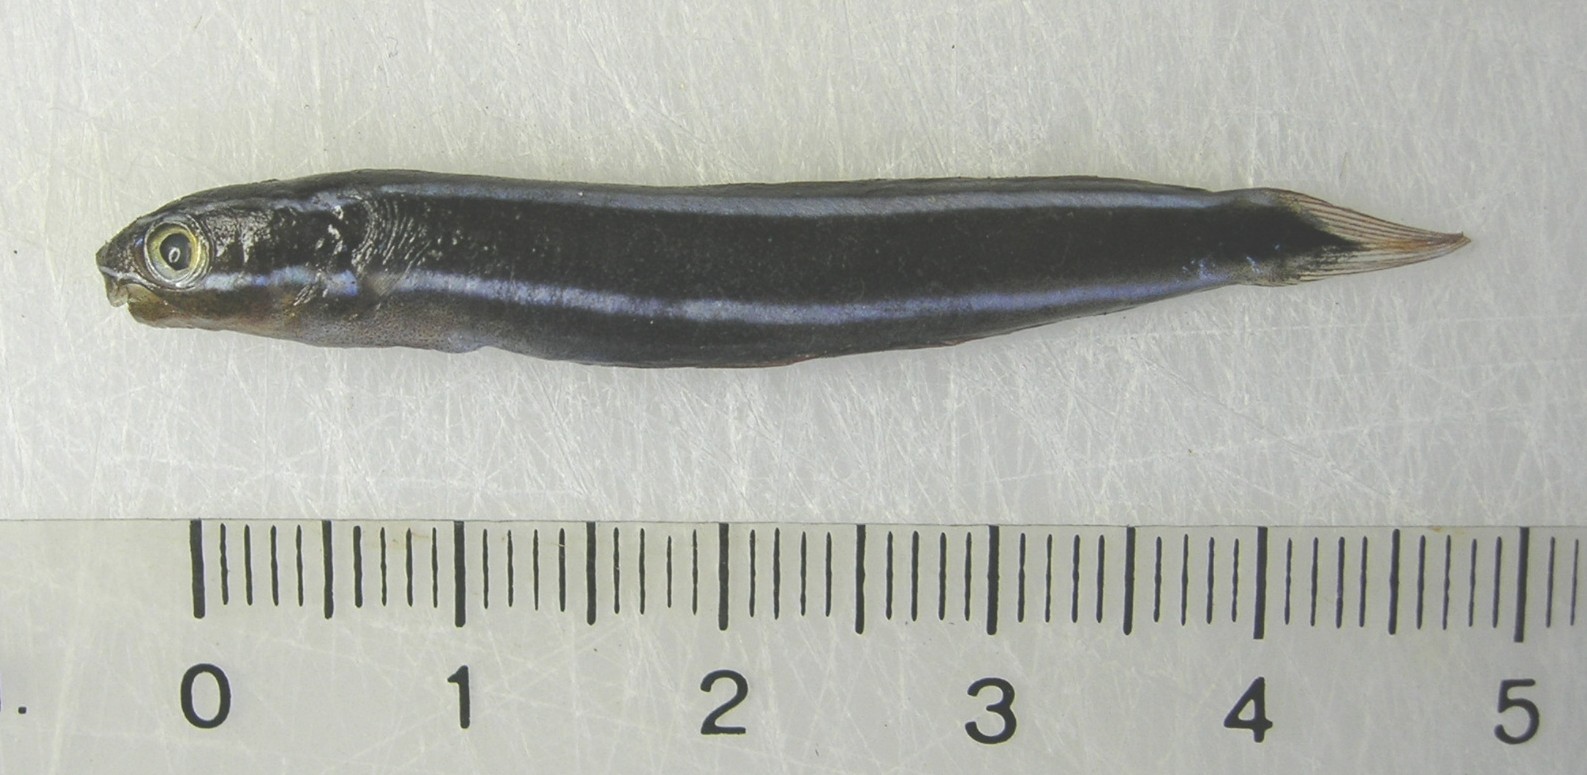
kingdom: Animalia
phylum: Chordata
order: Perciformes
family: Blenniidae
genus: Plagiotremus
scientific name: Plagiotremus rhinorhynchos
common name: Bluestriped fangblenny
